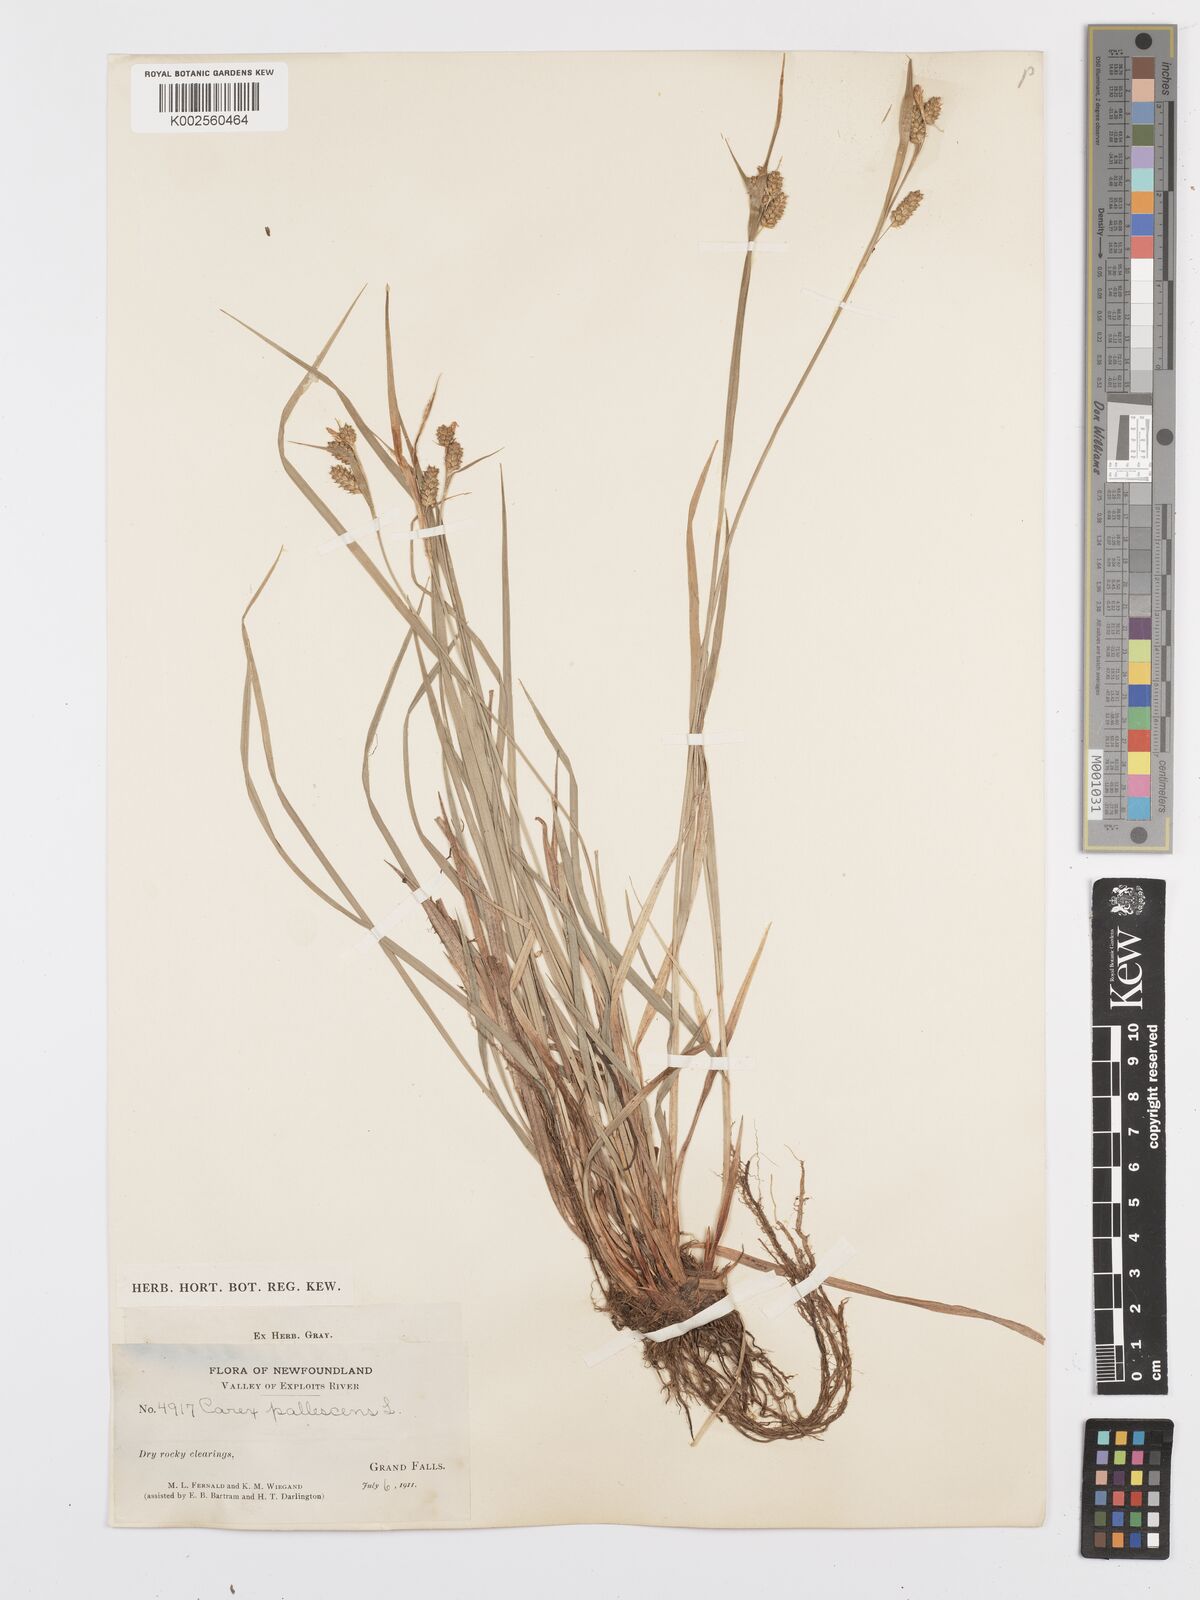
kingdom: Plantae
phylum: Tracheophyta
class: Liliopsida
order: Poales
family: Cyperaceae
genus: Carex
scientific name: Carex pallescens
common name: Pale sedge
